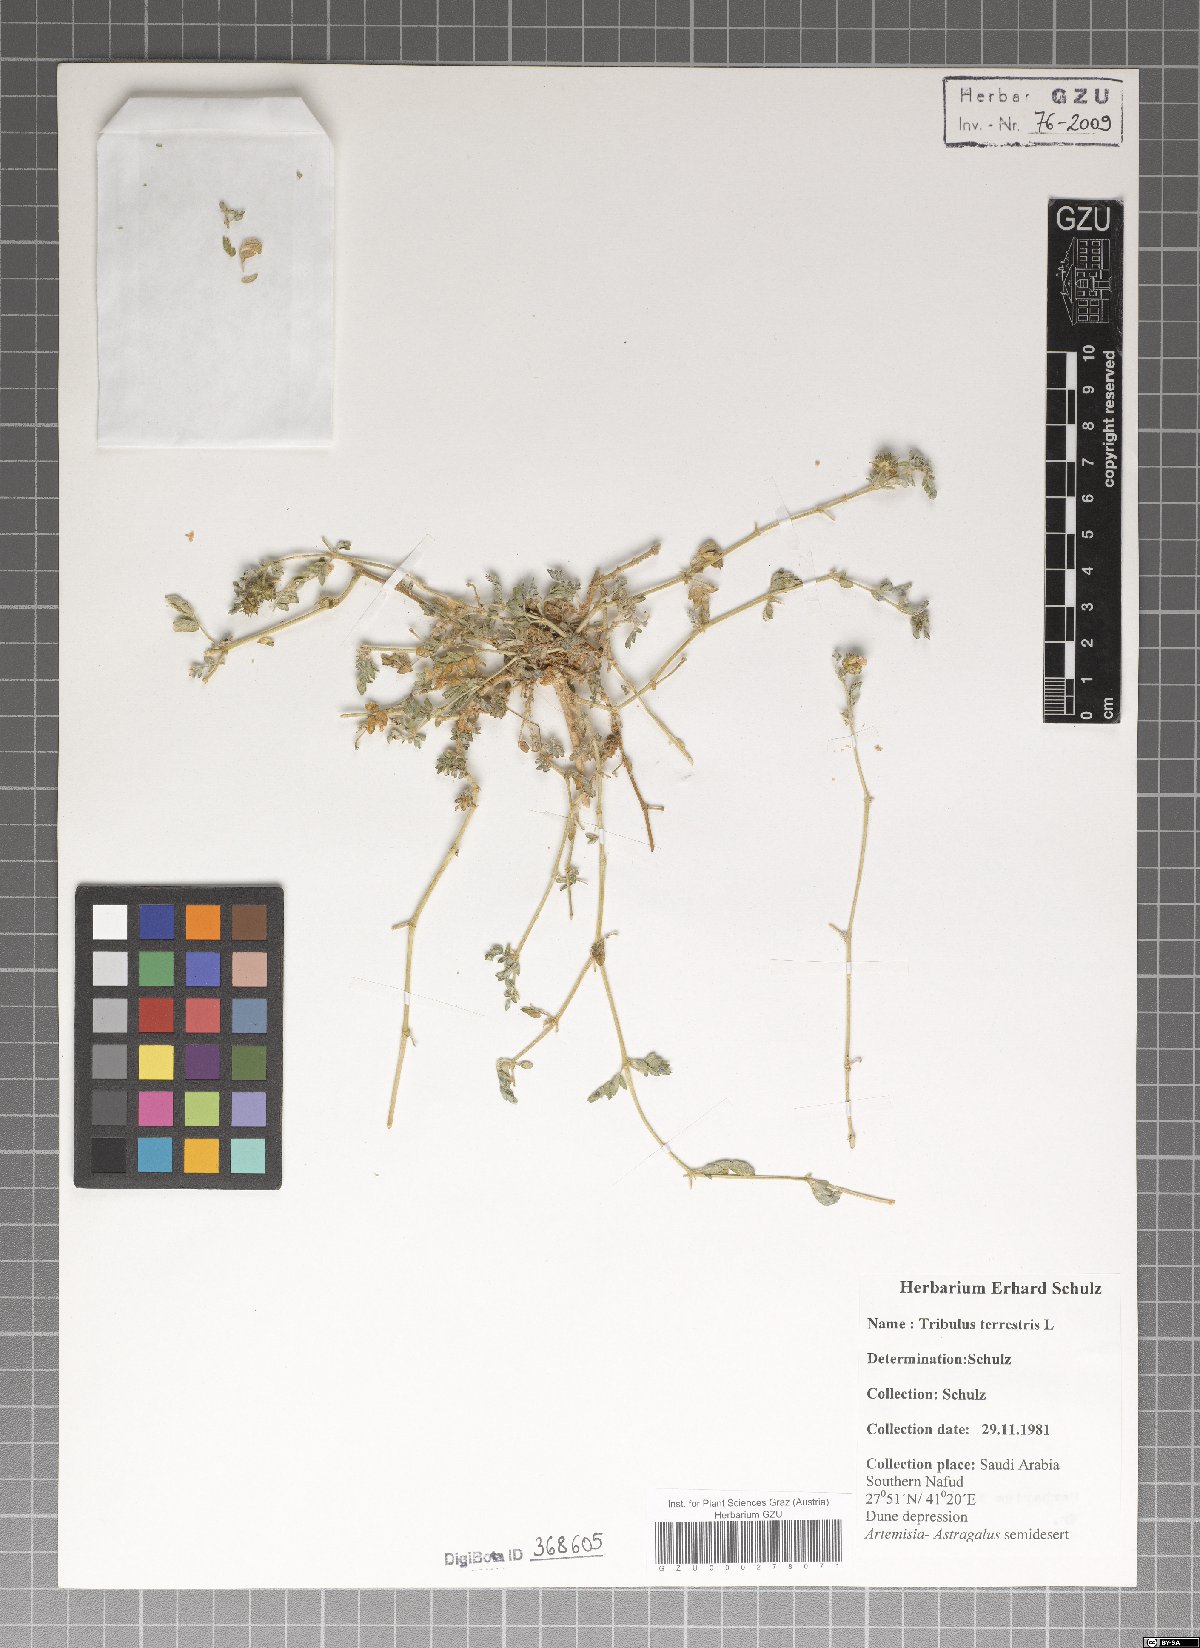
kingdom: Plantae
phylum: Tracheophyta
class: Magnoliopsida
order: Zygophyllales
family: Zygophyllaceae
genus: Tribulus
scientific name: Tribulus terrestris
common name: Puncturevine
